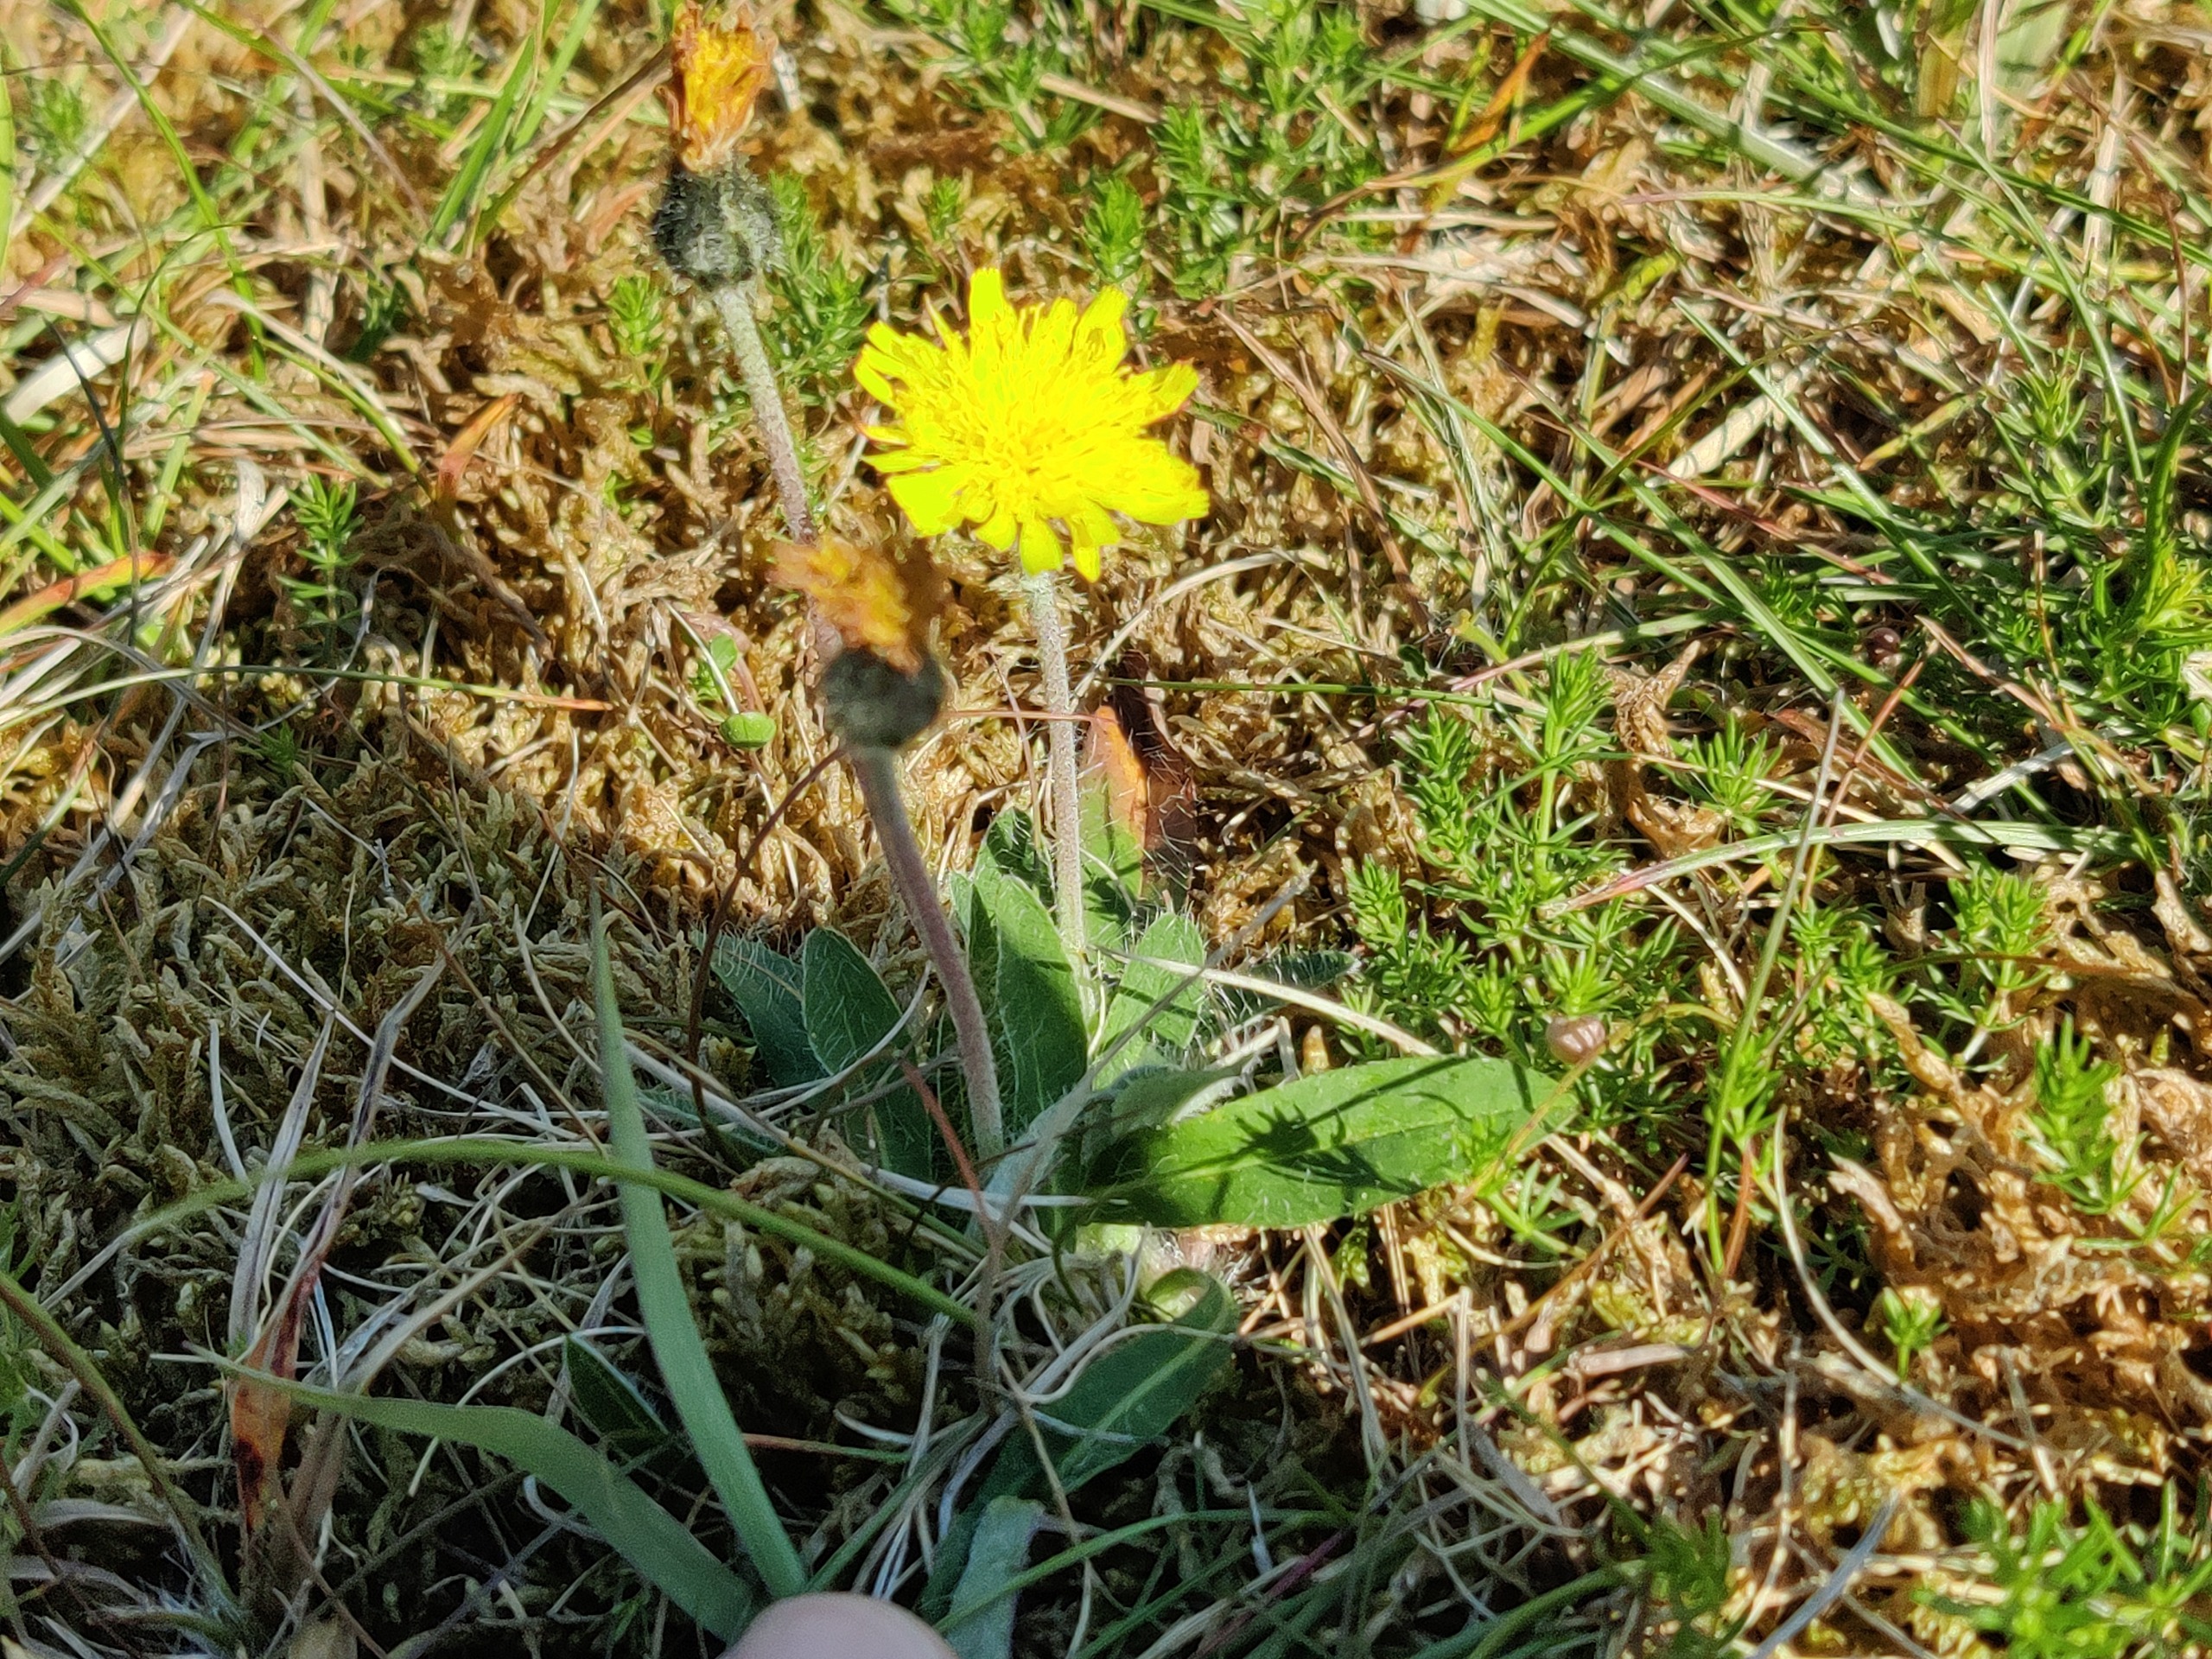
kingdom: Plantae
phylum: Tracheophyta
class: Magnoliopsida
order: Asterales
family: Asteraceae
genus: Pilosella
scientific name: Pilosella officinarum
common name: Håret høgeurt
